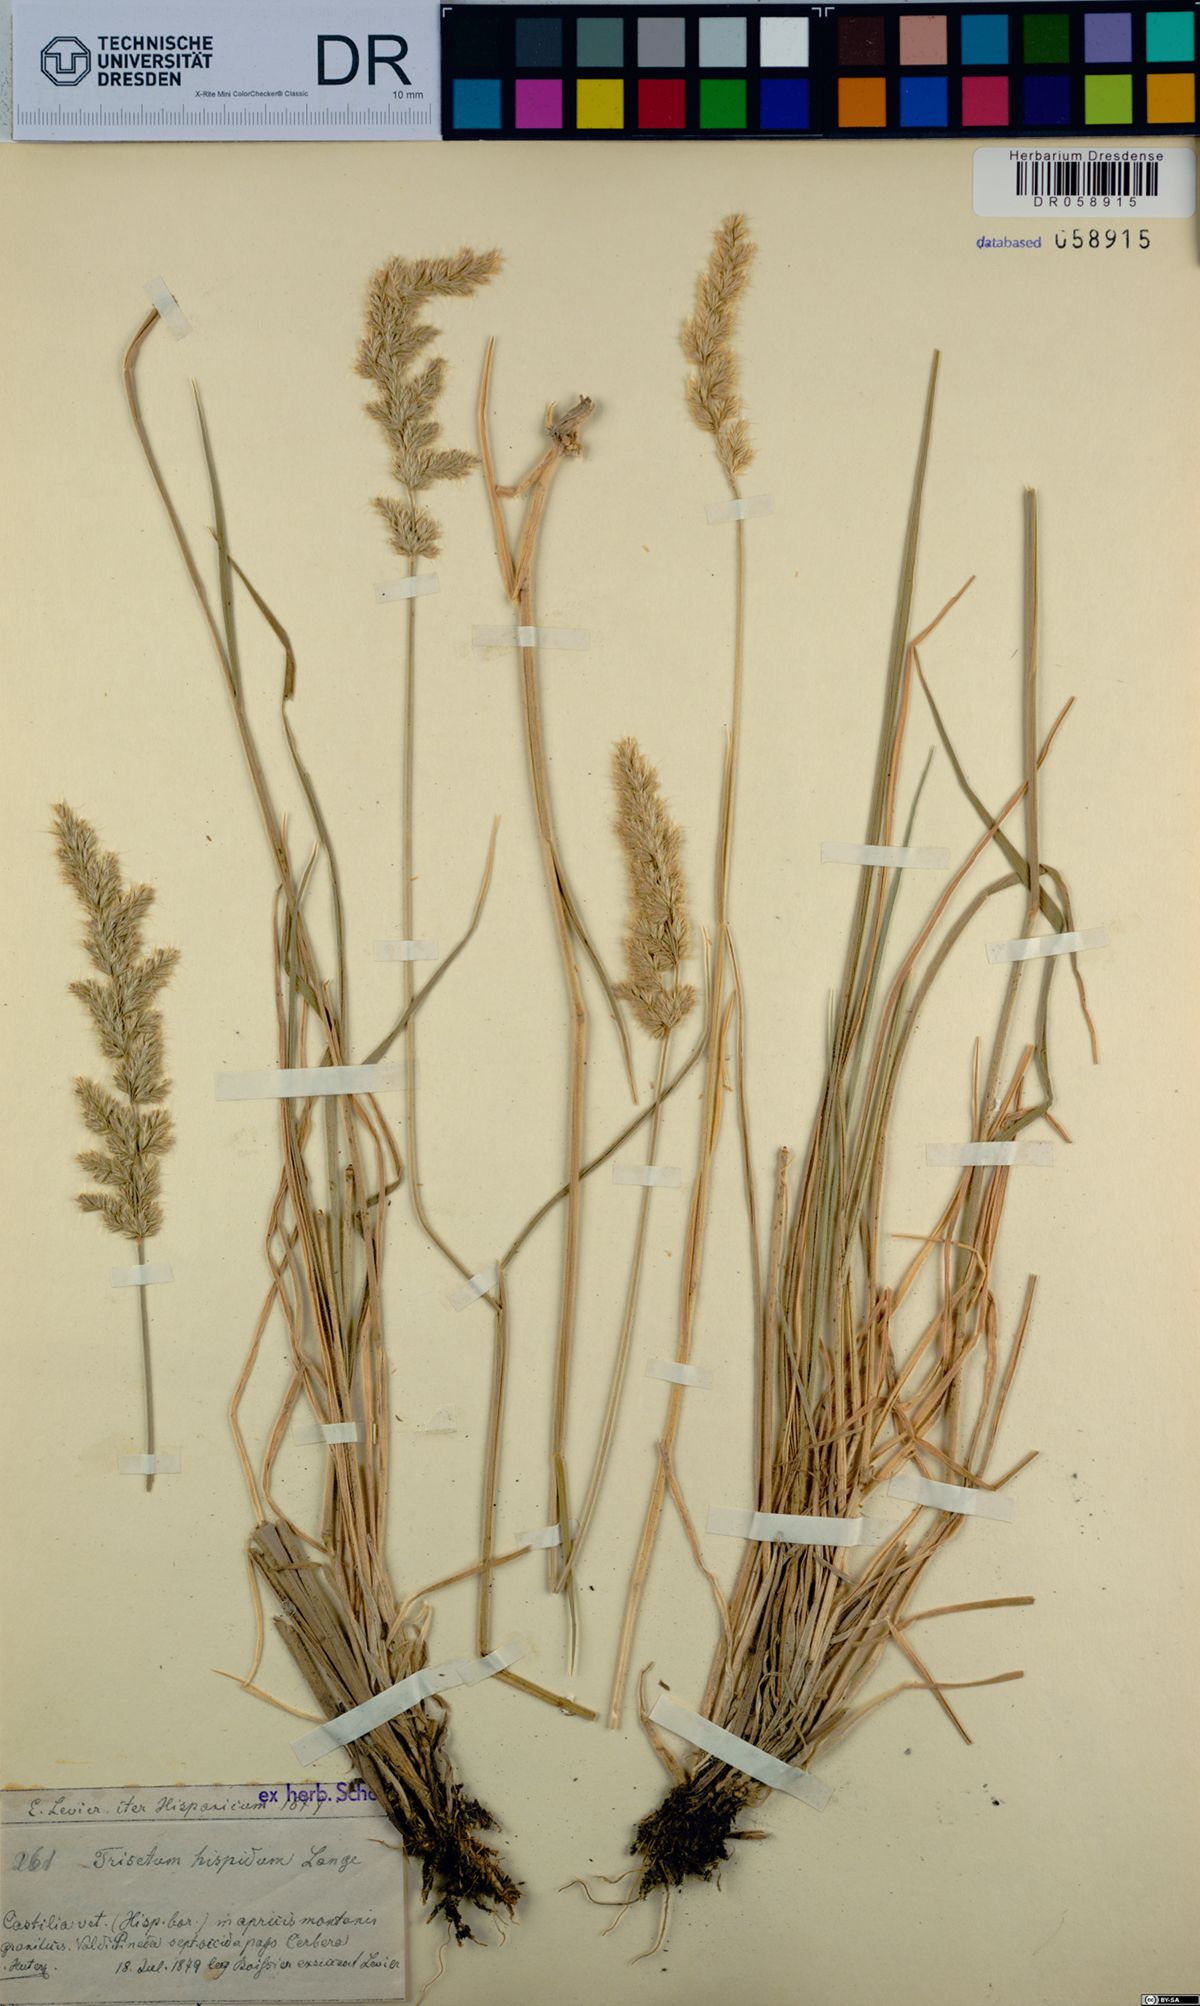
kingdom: Plantae
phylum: Tracheophyta
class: Liliopsida
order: Poales
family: Poaceae
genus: Koeleria
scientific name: Koeleria hispanica
